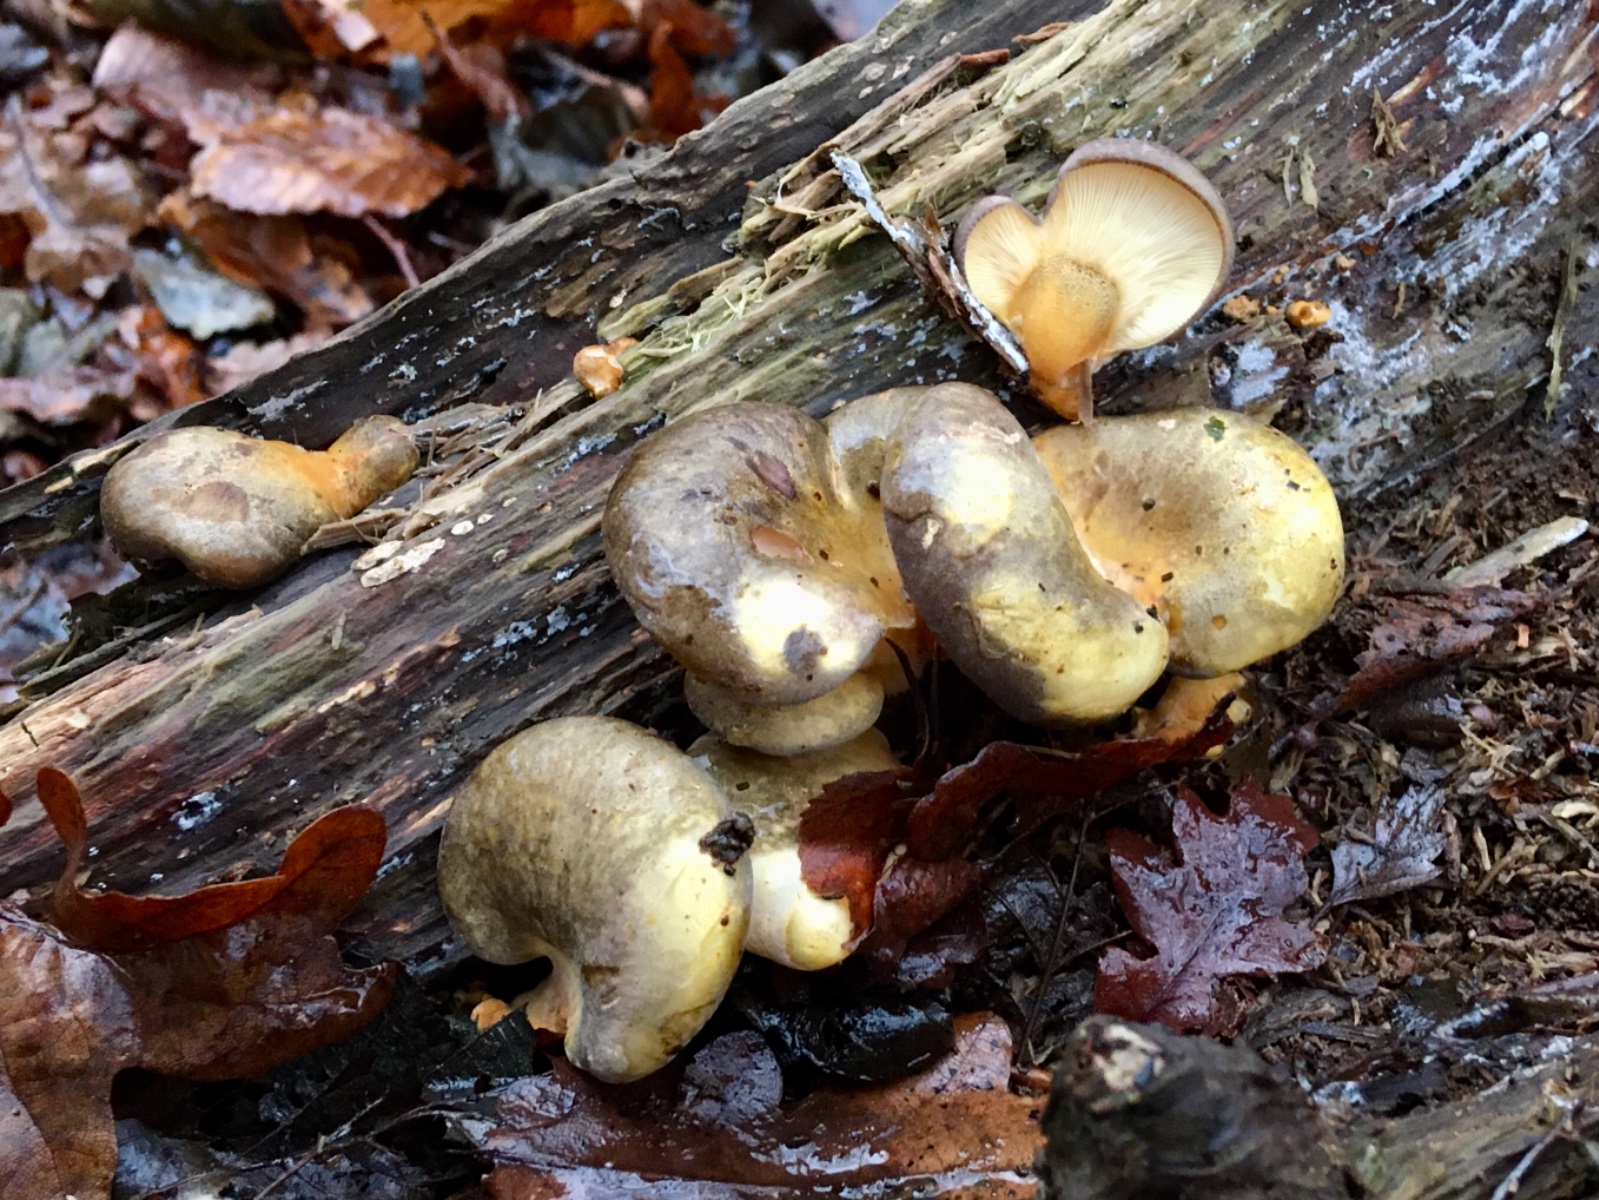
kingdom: Fungi
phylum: Basidiomycota
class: Agaricomycetes
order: Agaricales
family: Sarcomyxaceae
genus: Sarcomyxa
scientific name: Sarcomyxa serotina
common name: gummihat
